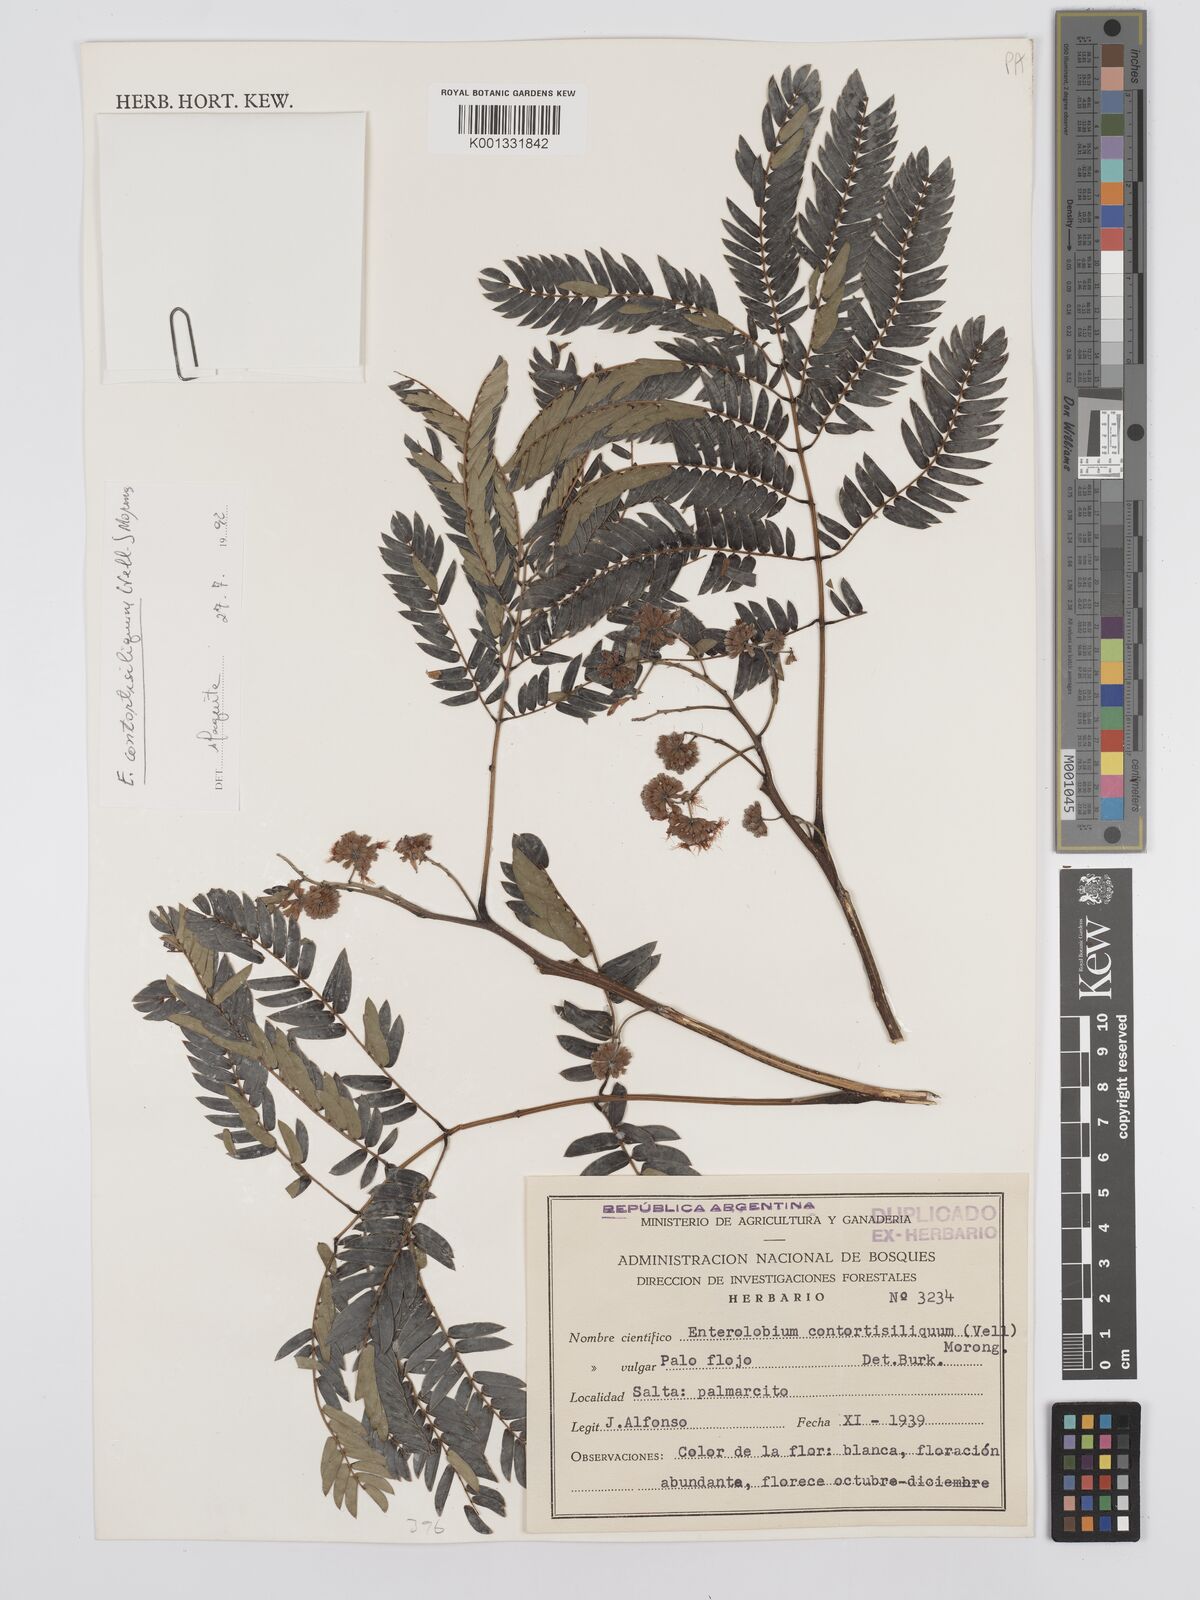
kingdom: Plantae
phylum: Tracheophyta
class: Magnoliopsida
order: Fabales
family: Fabaceae
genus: Enterolobium
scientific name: Enterolobium contortisiliquum
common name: Pacara earpod tree
